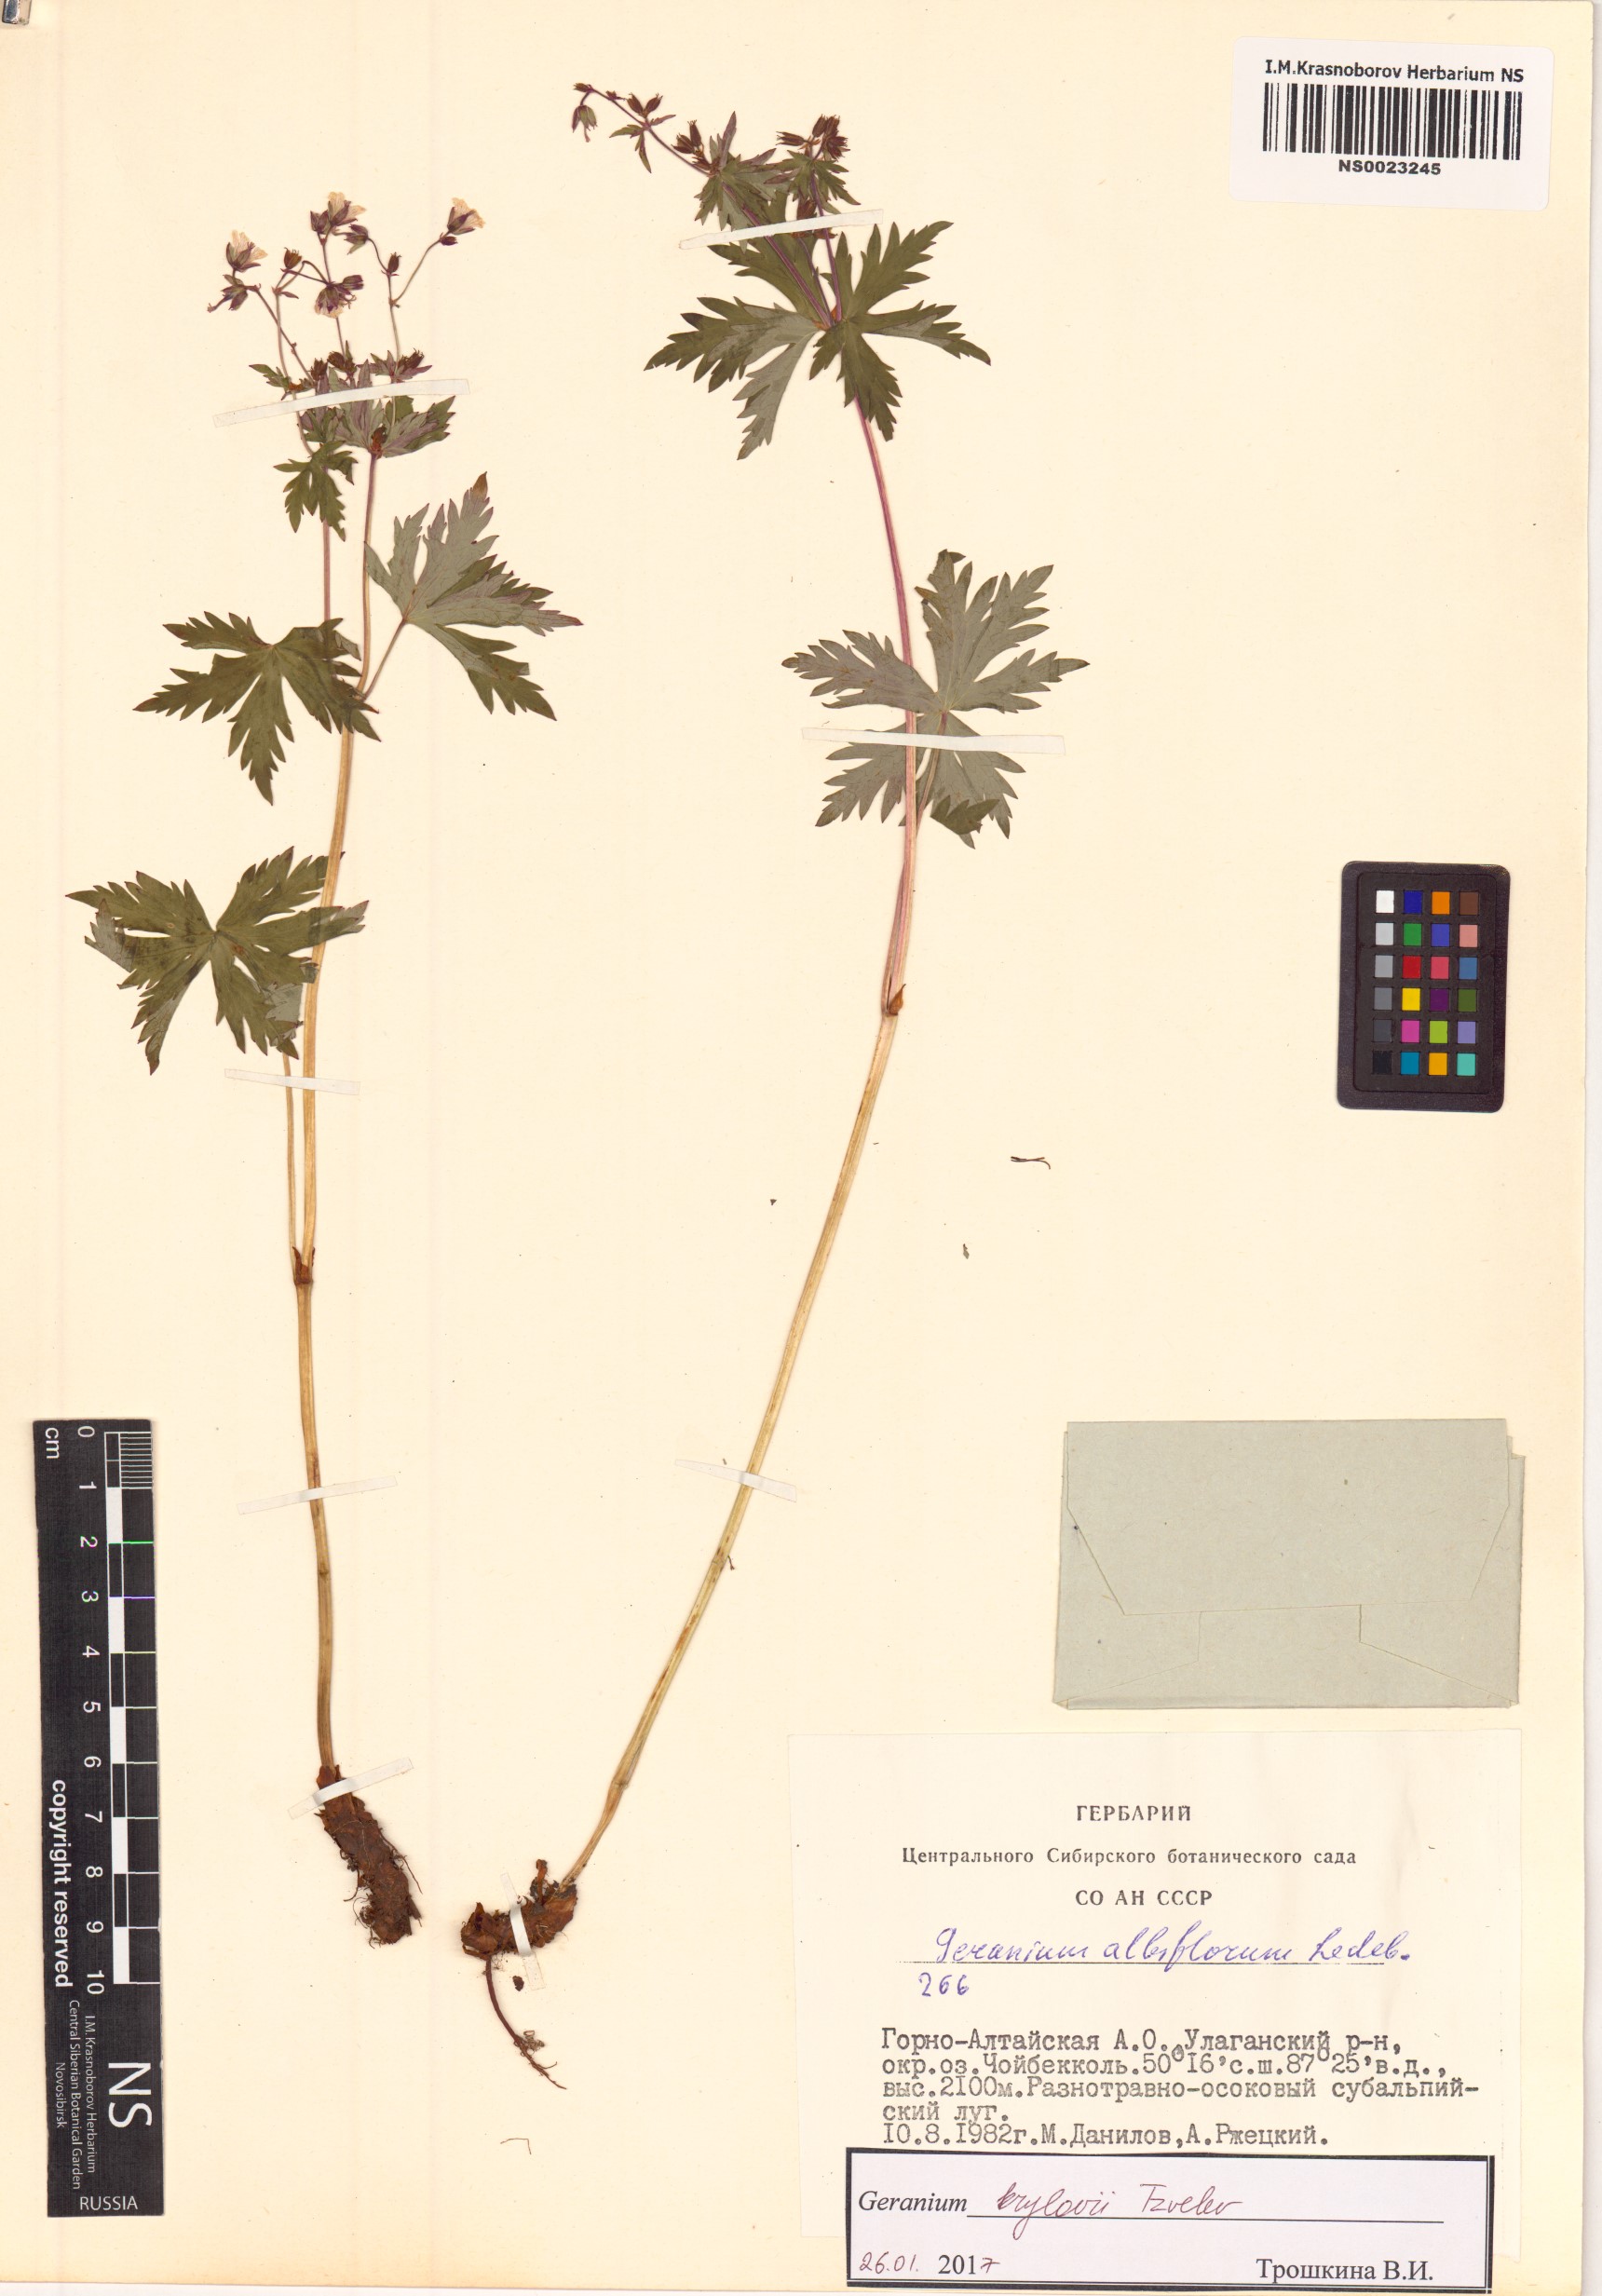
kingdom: Plantae
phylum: Tracheophyta
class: Magnoliopsida
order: Geraniales
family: Geraniaceae
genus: Geranium
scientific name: Geranium sylvaticum
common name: Wood crane's-bill
